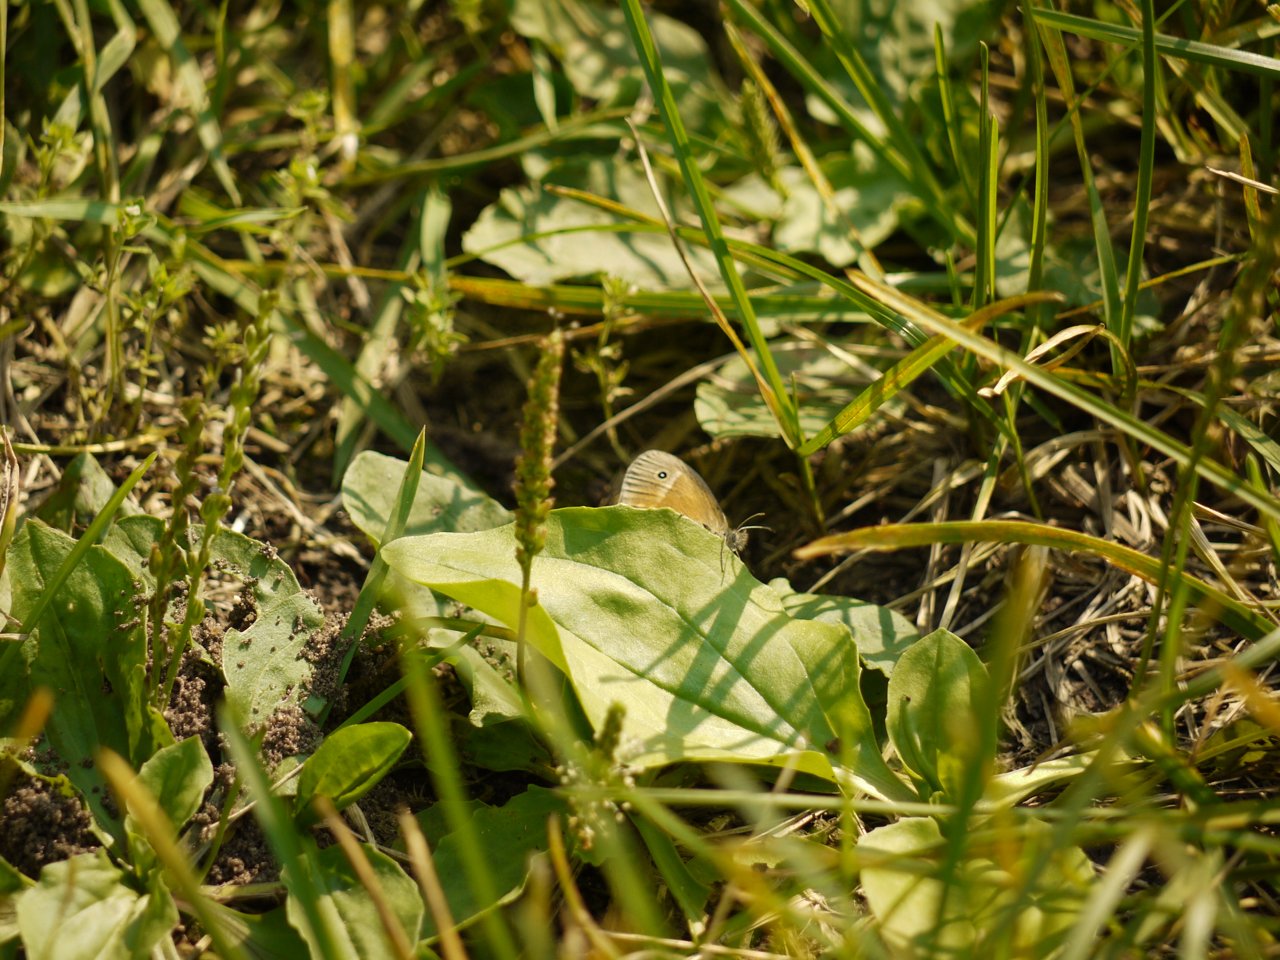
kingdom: Animalia
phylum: Arthropoda
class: Insecta
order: Lepidoptera
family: Nymphalidae
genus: Coenonympha
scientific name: Coenonympha tullia
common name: Large Heath
